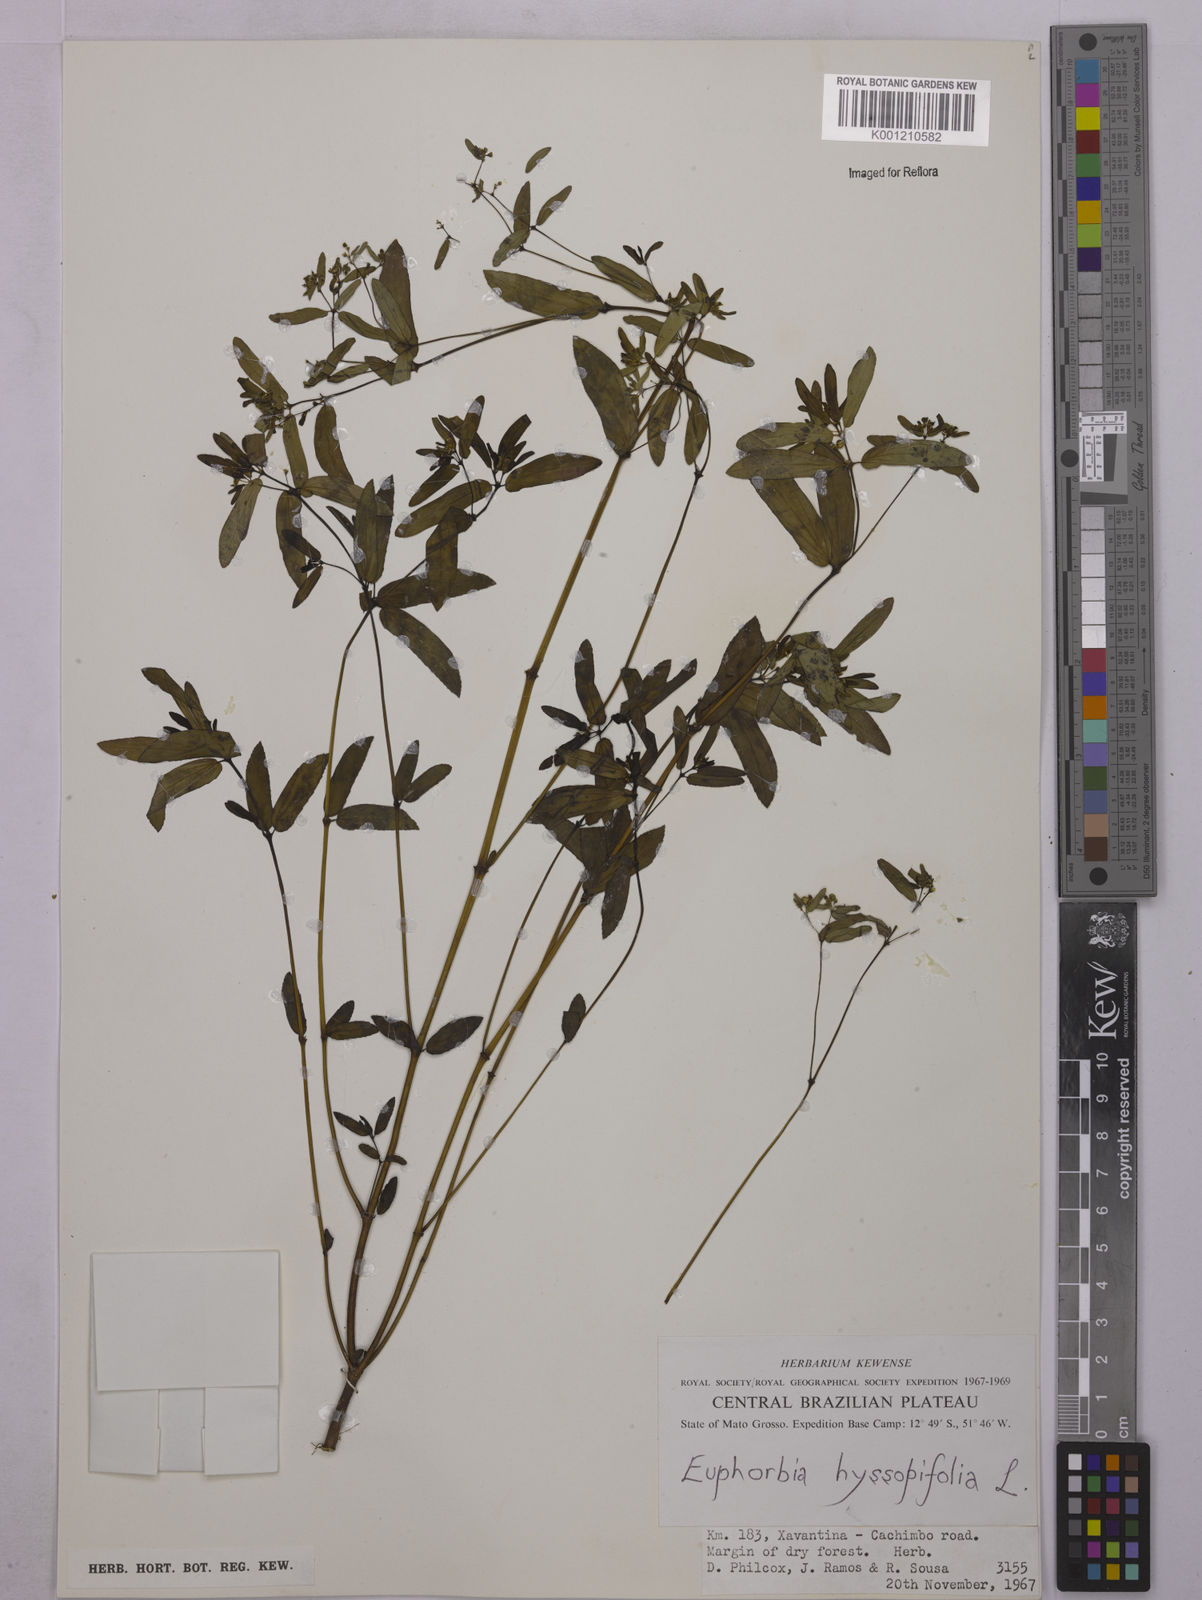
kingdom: Plantae
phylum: Tracheophyta
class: Magnoliopsida
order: Malpighiales
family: Euphorbiaceae
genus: Euphorbia
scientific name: Euphorbia hyssopifolia
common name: Hyssopleaf sandmat
